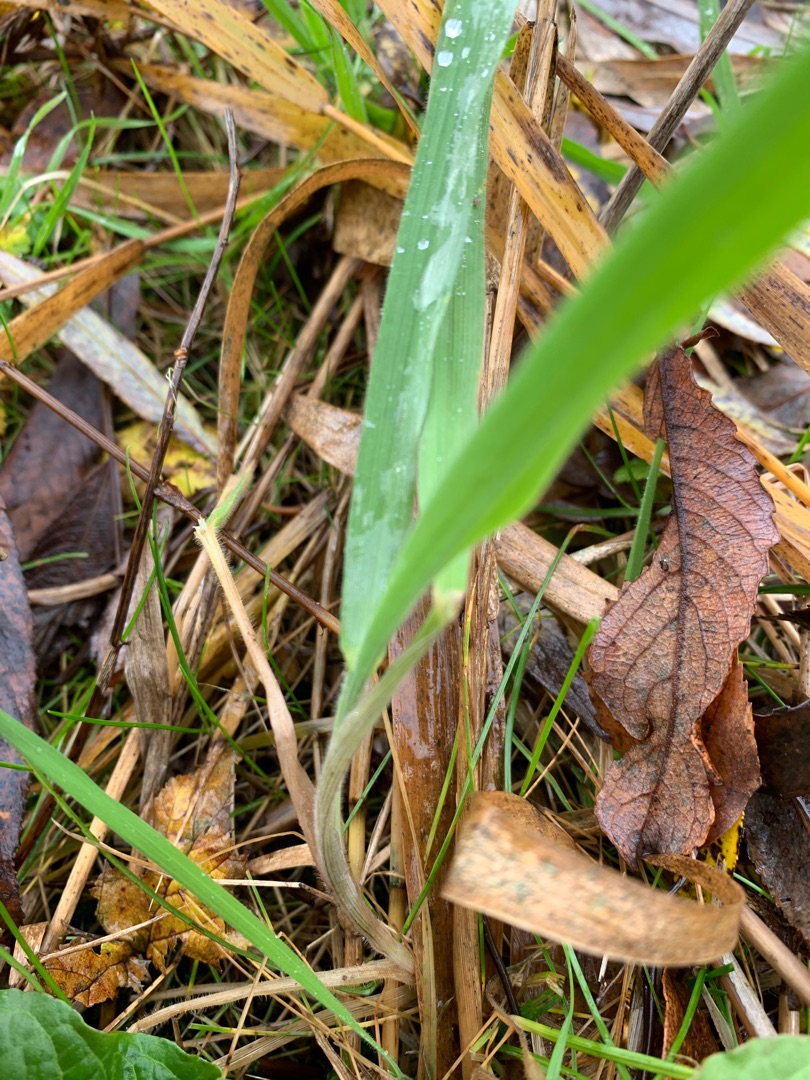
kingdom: Plantae
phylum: Tracheophyta
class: Liliopsida
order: Poales
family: Poaceae
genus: Holcus
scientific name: Holcus lanatus
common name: Fløjlsgræs
